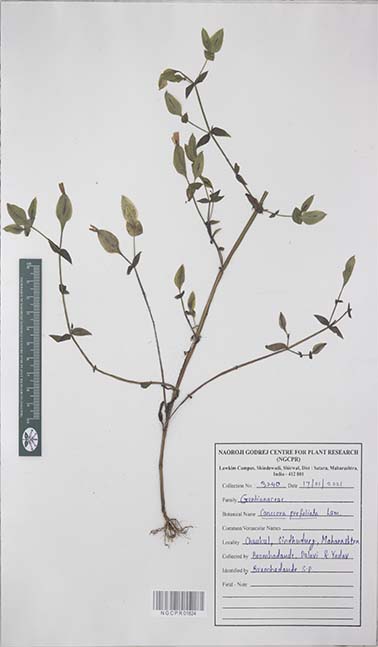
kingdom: Plantae
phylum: Tracheophyta
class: Magnoliopsida
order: Gentianales
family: Gentianaceae
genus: Canscora
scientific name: Canscora perfoliata
